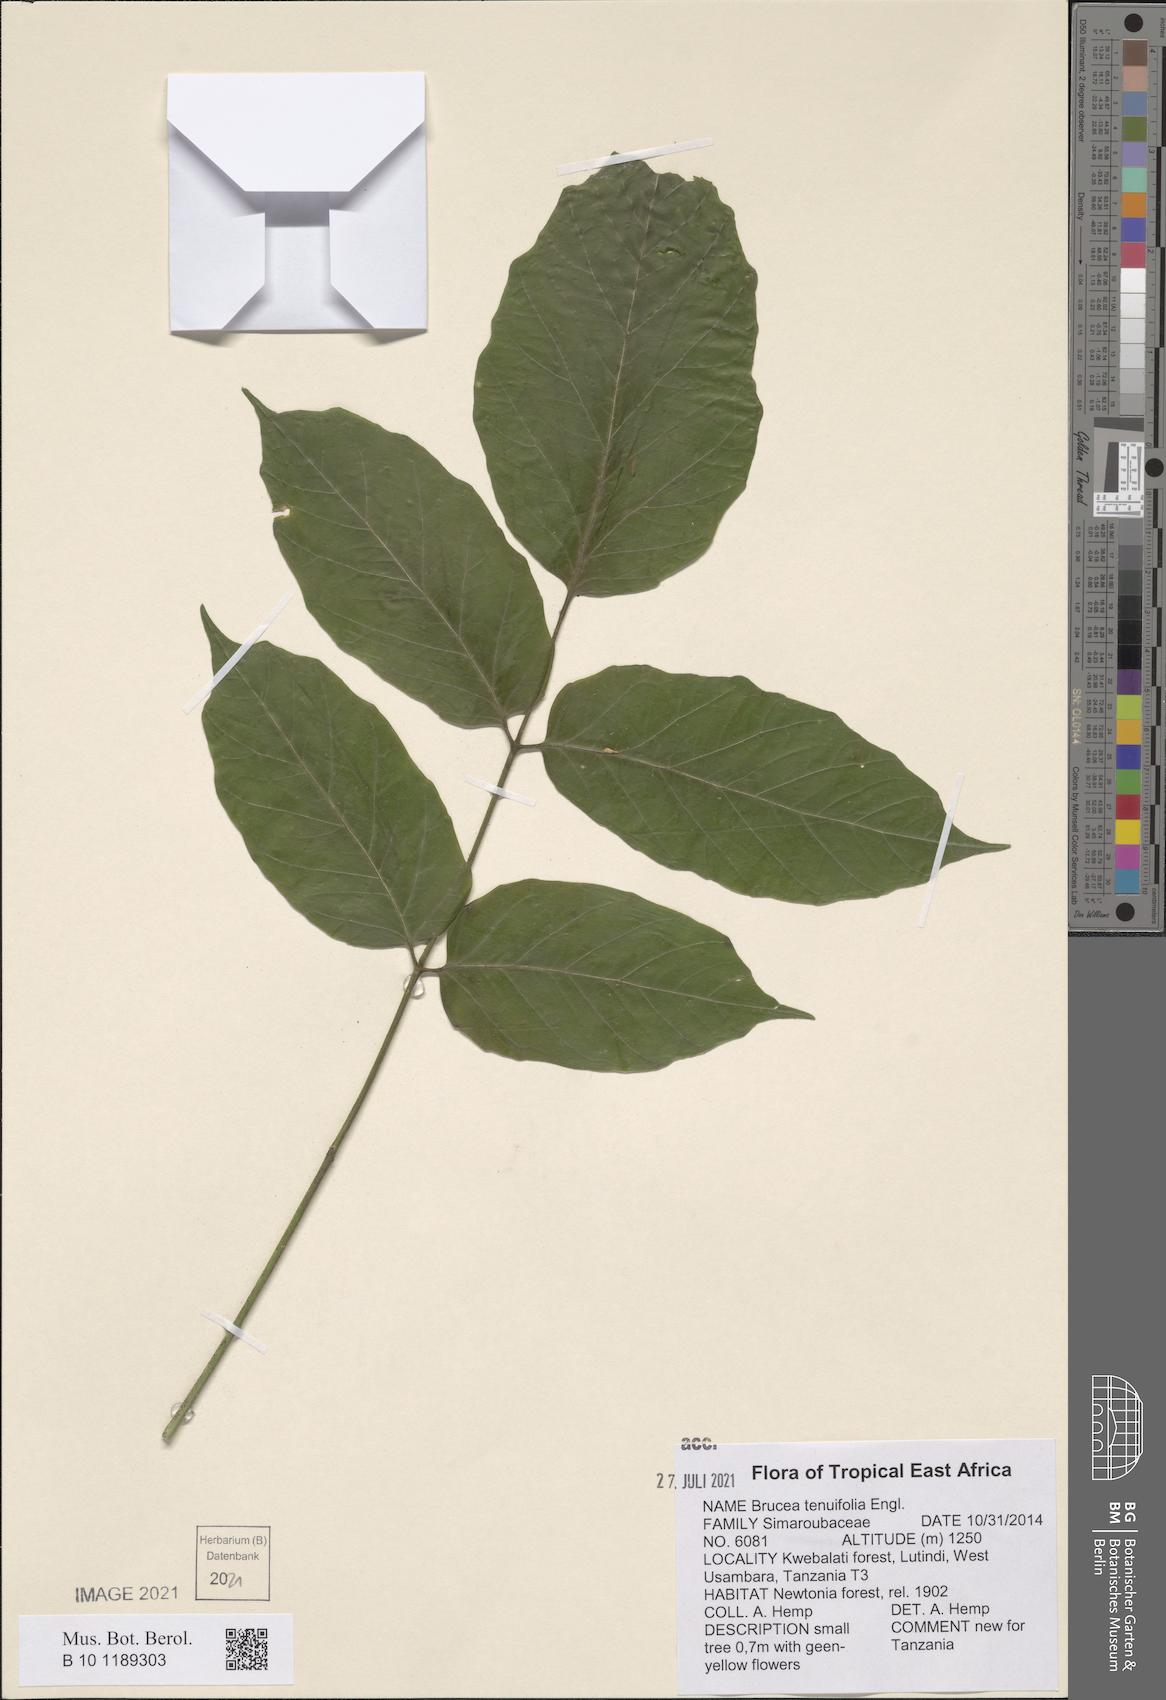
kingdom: Plantae
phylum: Tracheophyta
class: Magnoliopsida
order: Sapindales
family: Simaroubaceae
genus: Brucea
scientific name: Brucea tenuifolia
